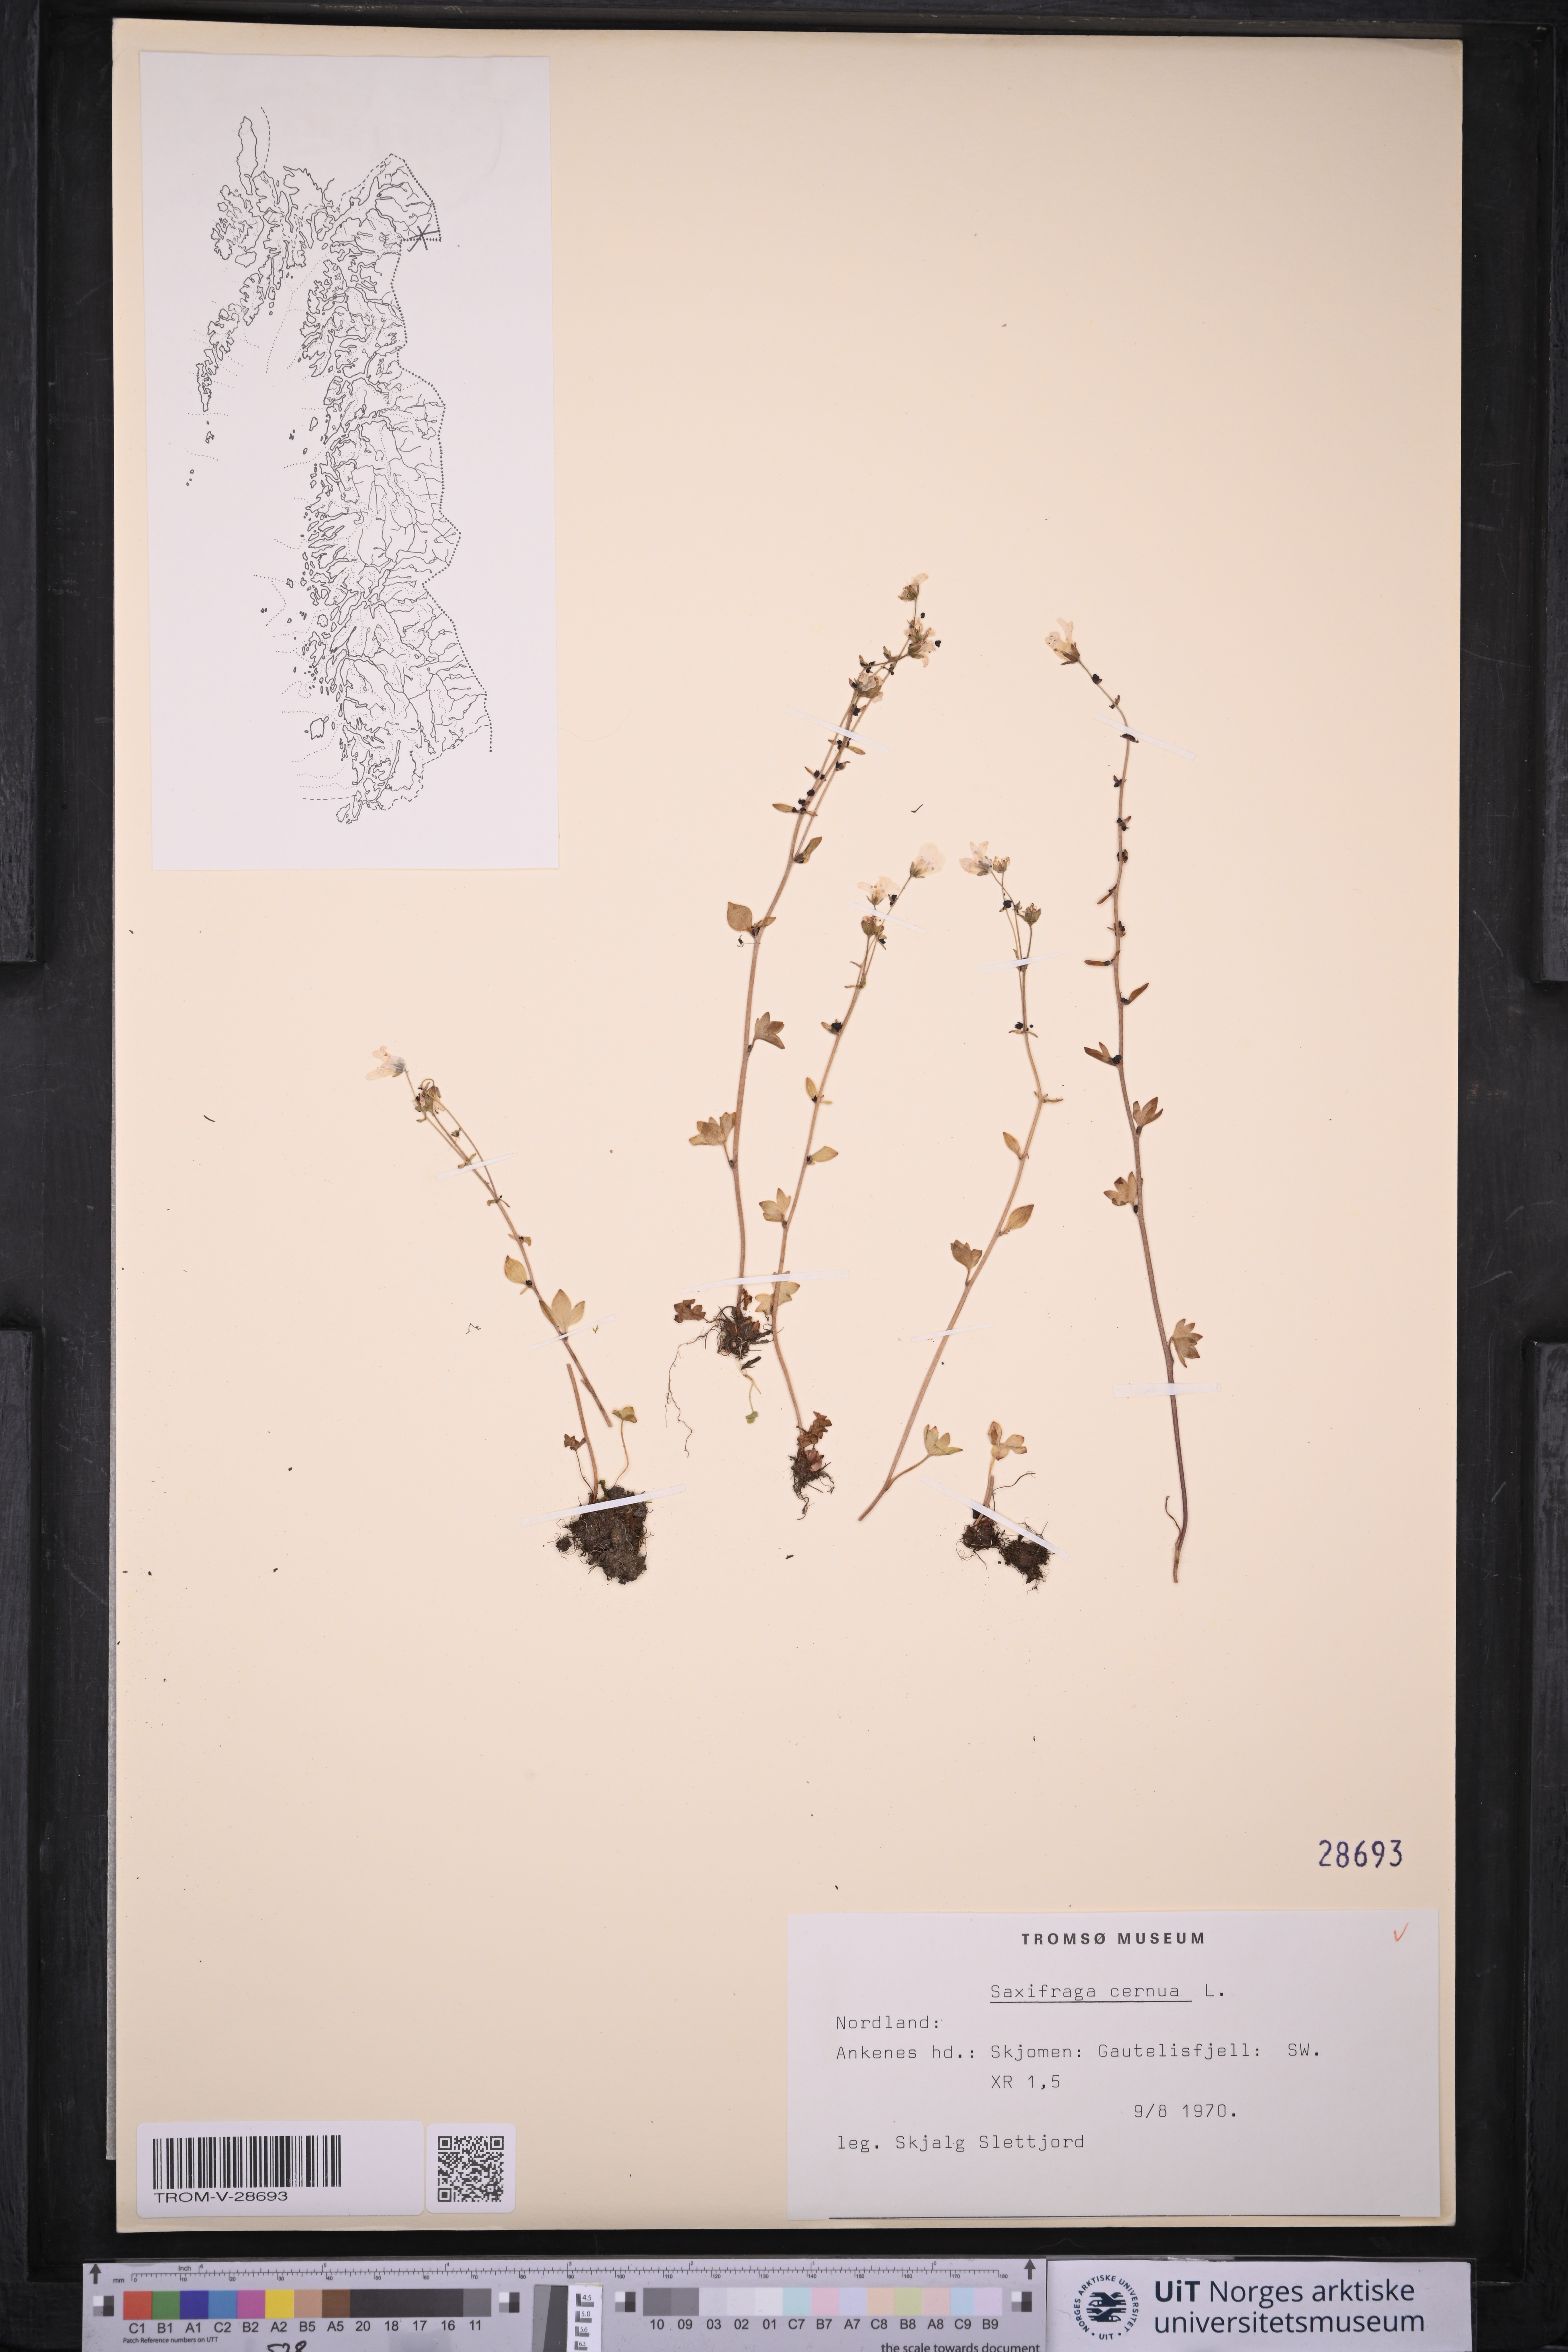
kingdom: Plantae
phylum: Tracheophyta
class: Magnoliopsida
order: Saxifragales
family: Saxifragaceae
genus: Saxifraga
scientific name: Saxifraga cernua
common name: Drooping saxifrage
